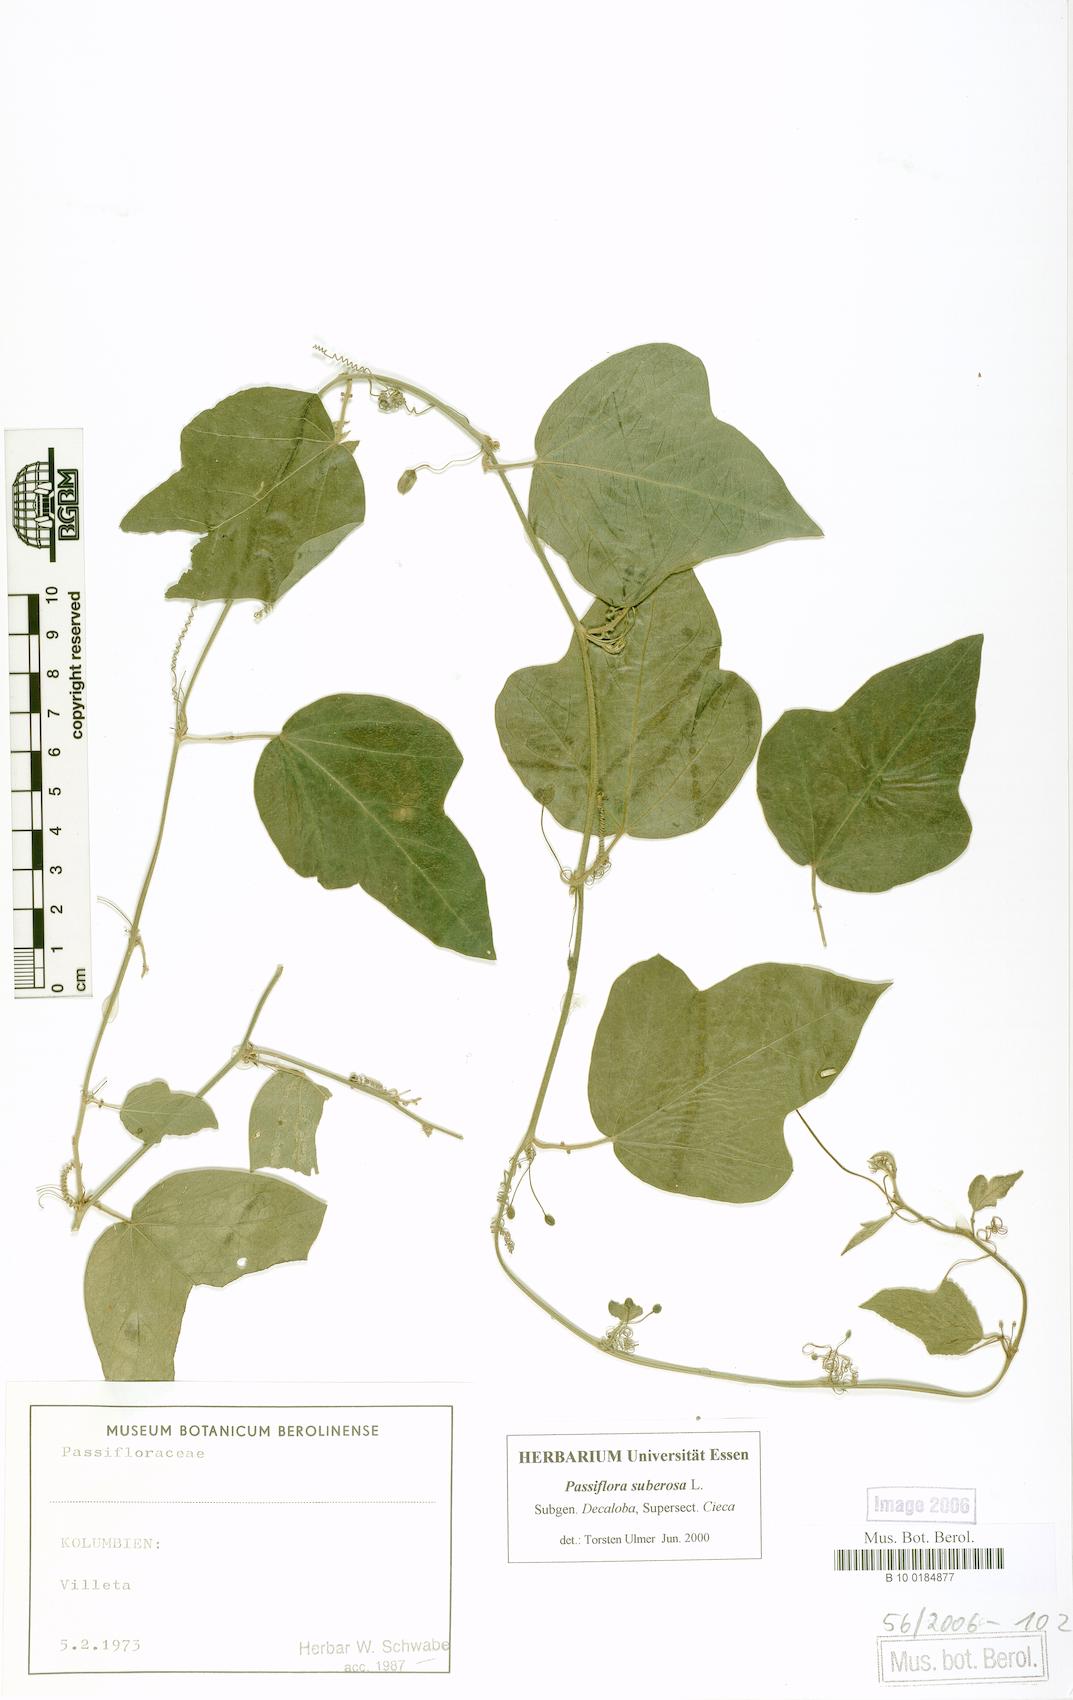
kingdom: Plantae
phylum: Tracheophyta
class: Magnoliopsida
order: Malpighiales
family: Passifloraceae
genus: Passiflora
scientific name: Passiflora suberosa
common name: Wild passionfruit
